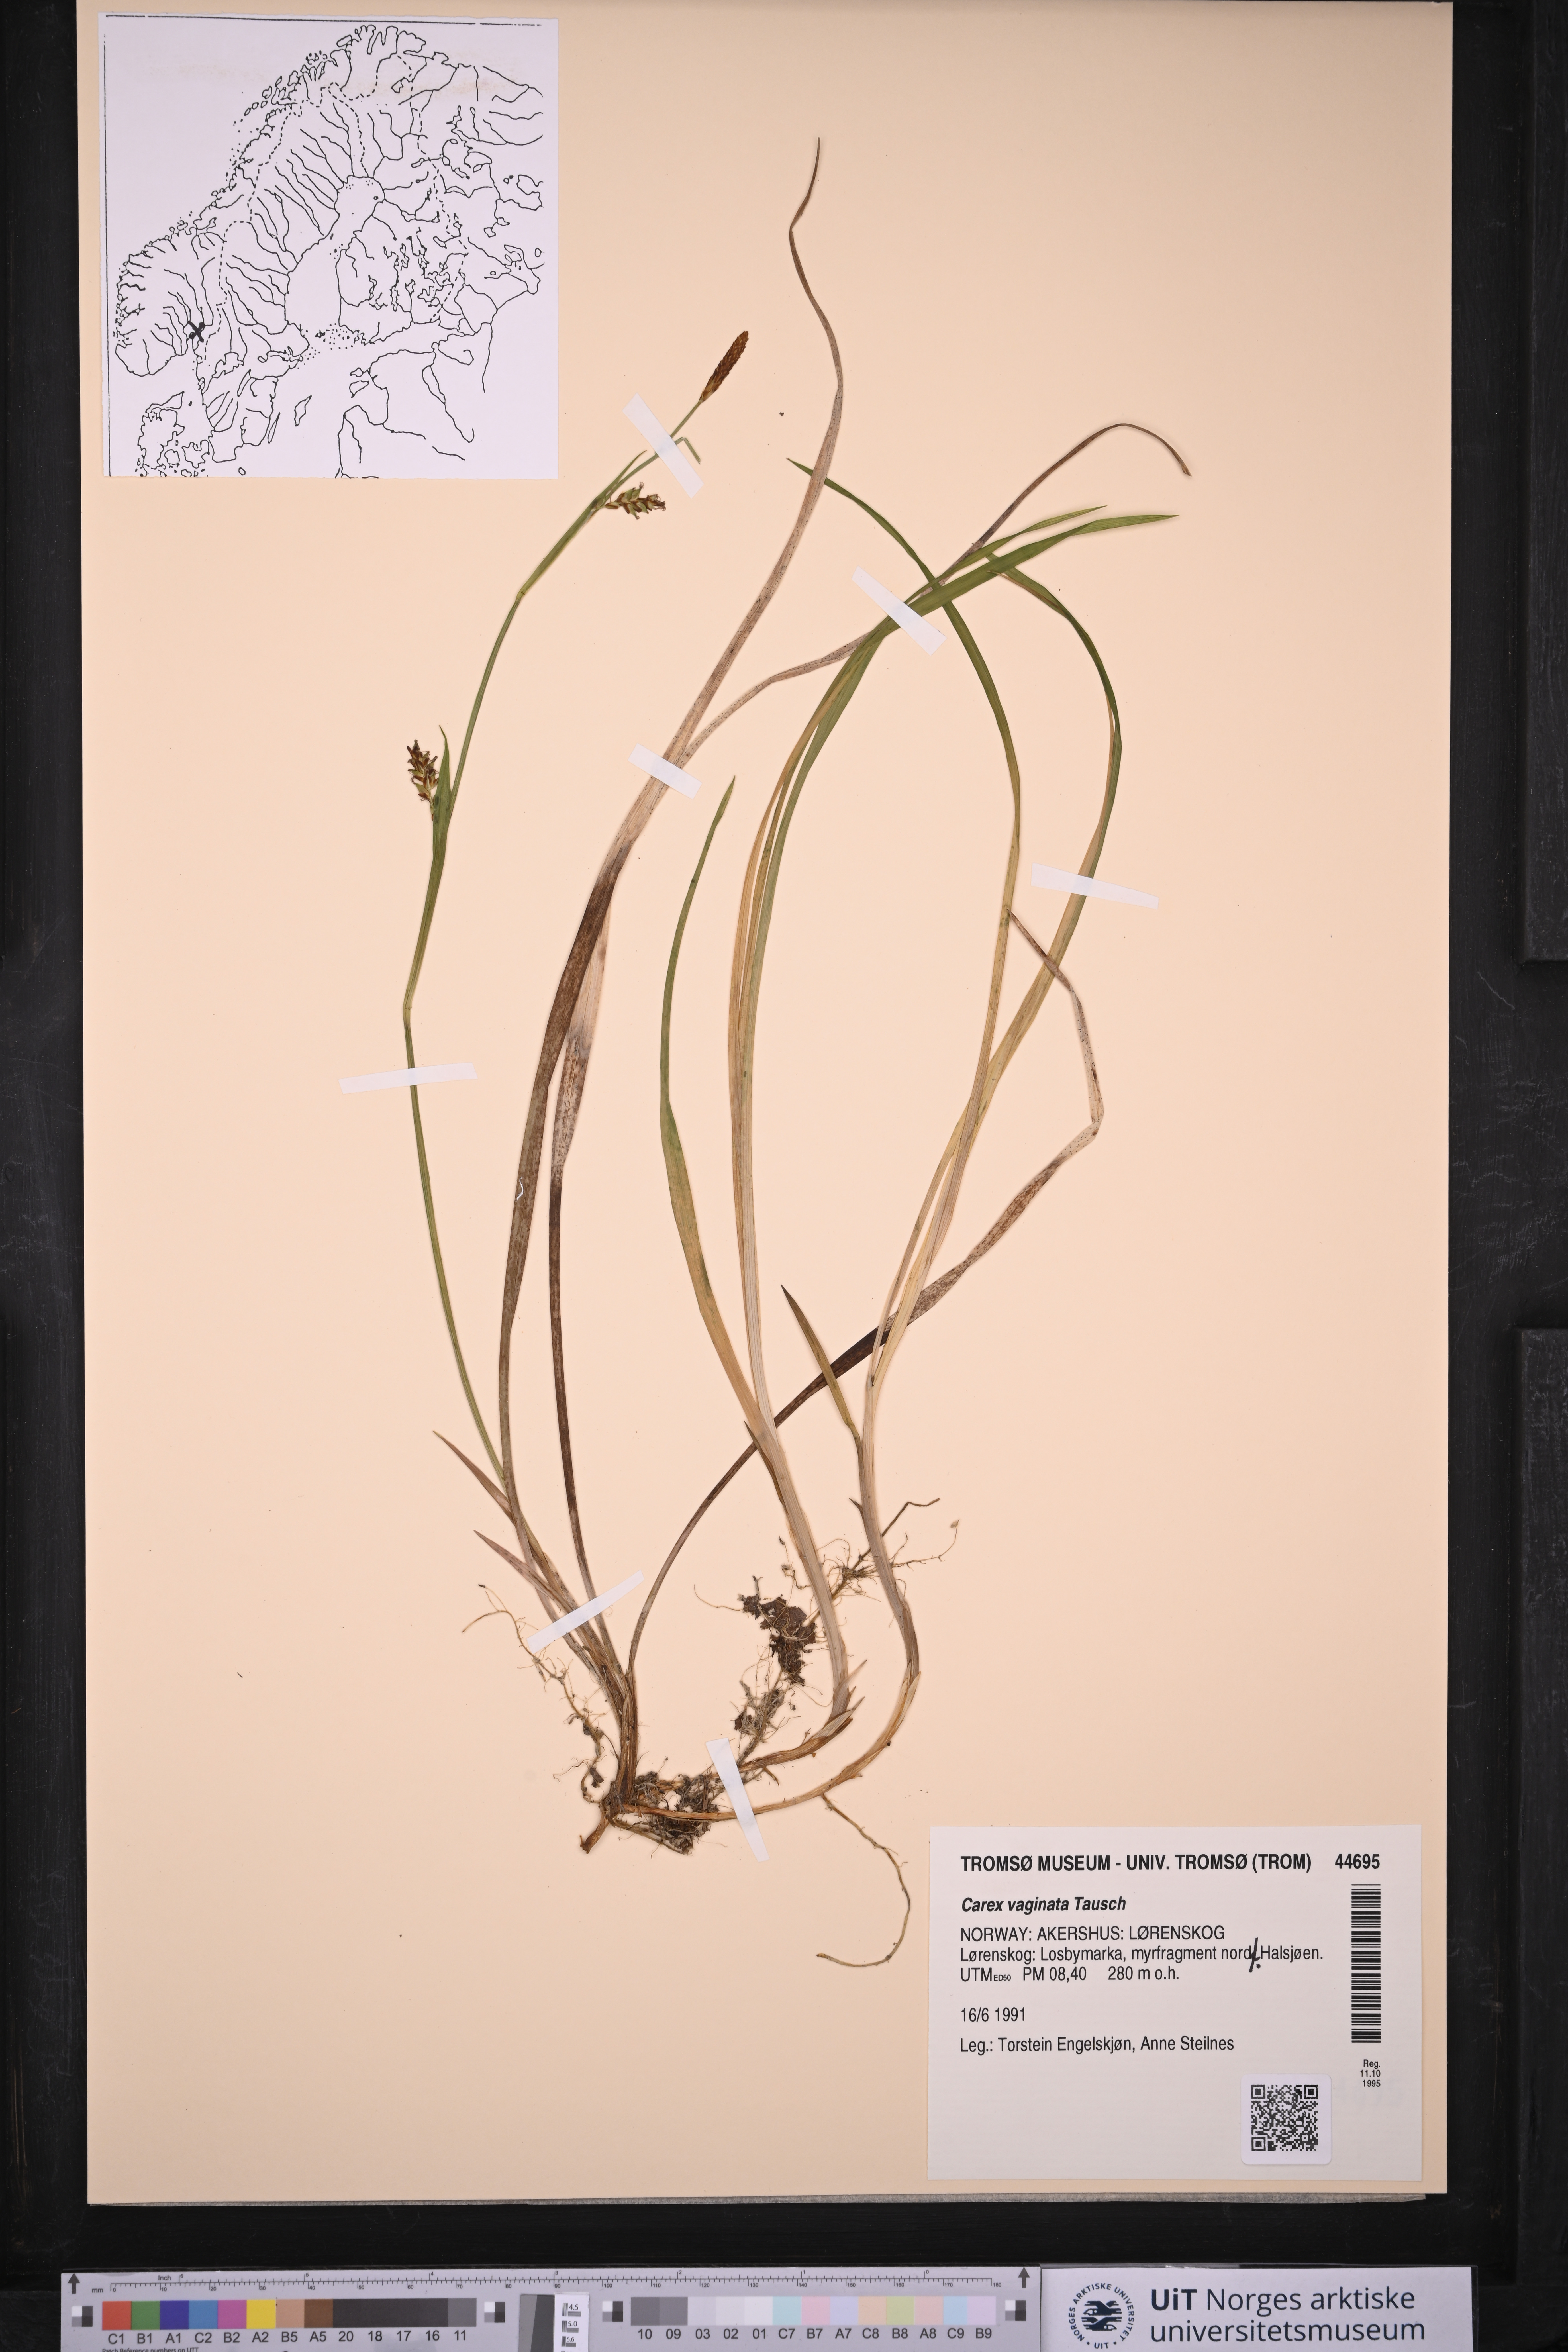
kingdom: Plantae
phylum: Tracheophyta
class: Liliopsida
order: Poales
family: Cyperaceae
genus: Carex
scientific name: Carex vaginata
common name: Sheathed sedge
